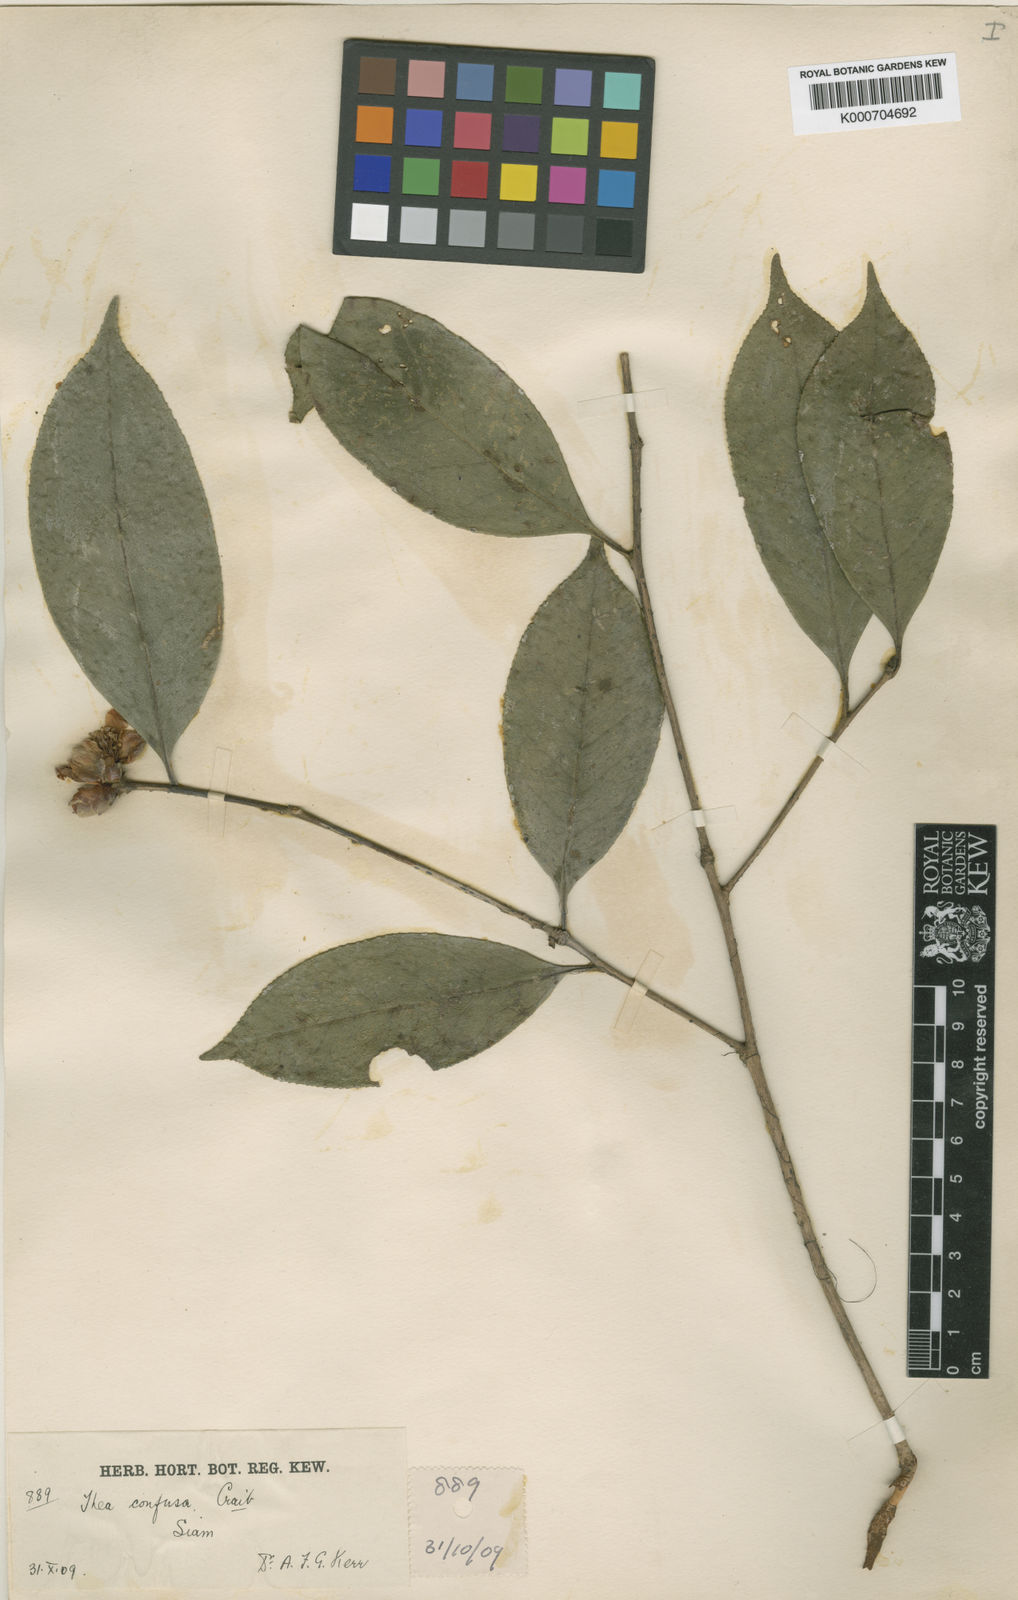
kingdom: Plantae
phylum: Tracheophyta
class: Magnoliopsida
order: Ericales
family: Theaceae
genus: Camellia
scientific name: Camellia oleifera
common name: Tea-oil-plant
